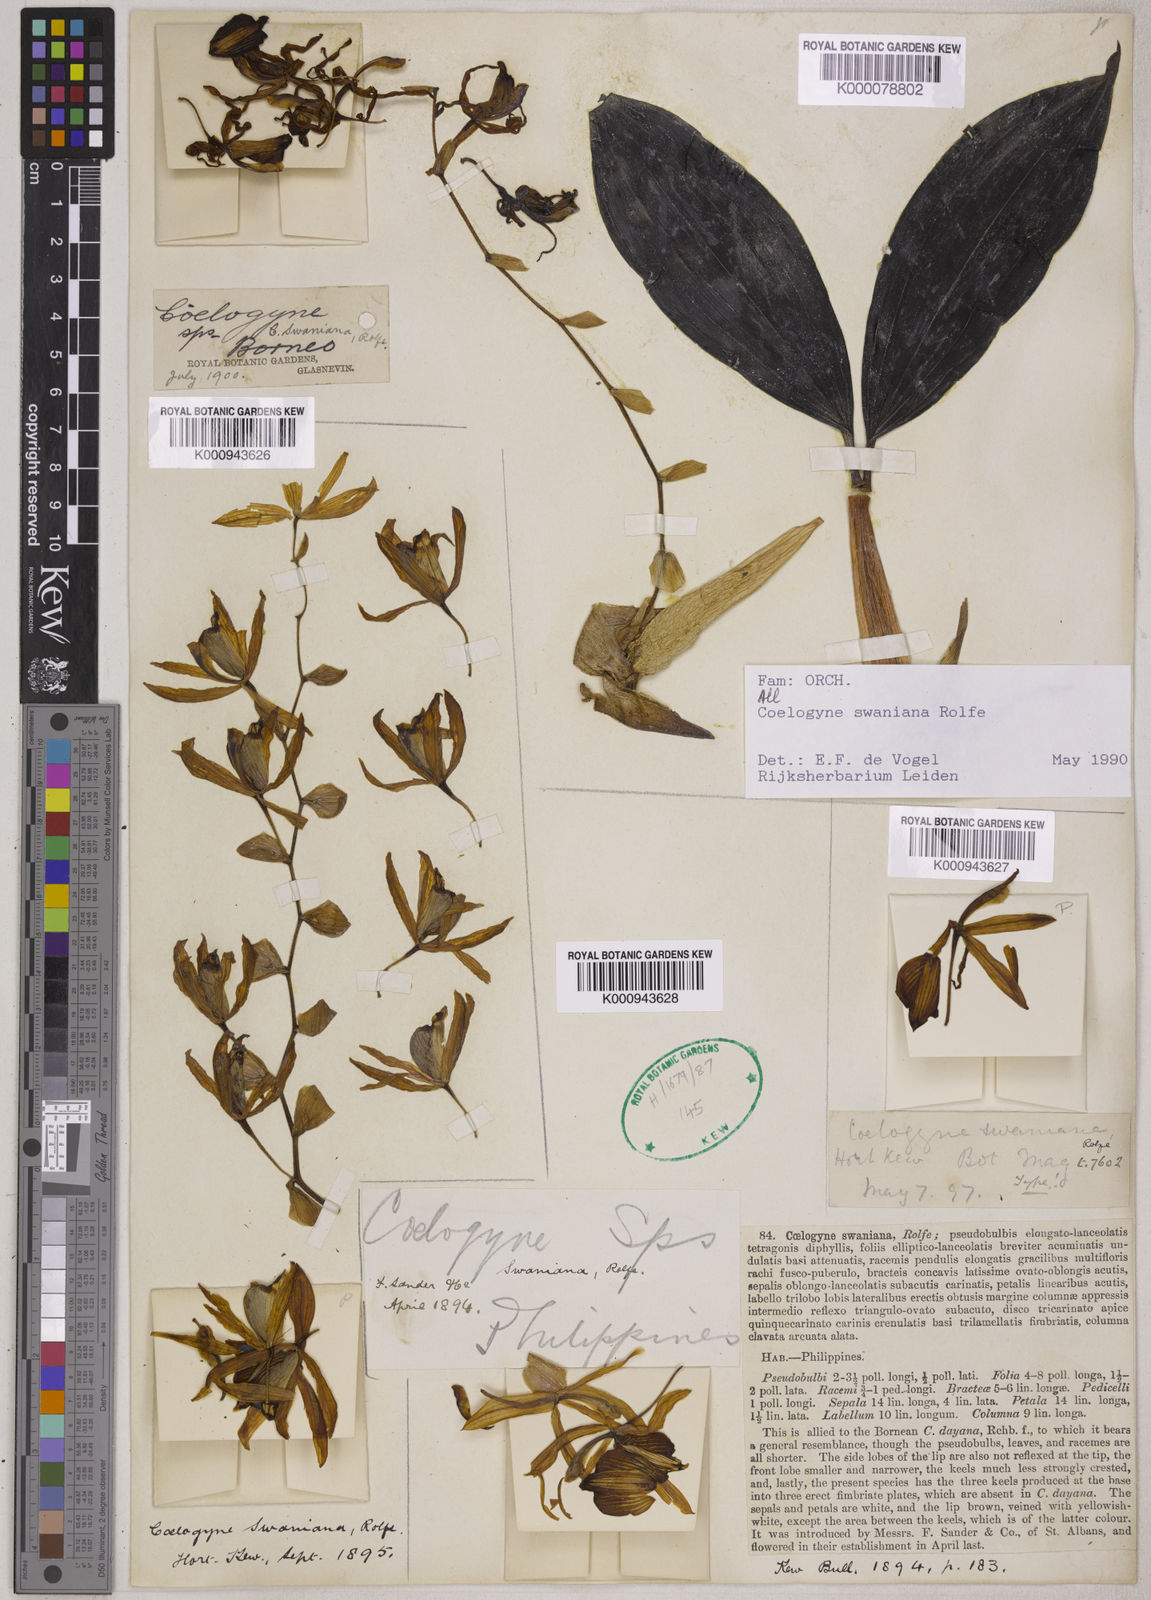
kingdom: Plantae
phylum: Tracheophyta
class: Liliopsida
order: Asparagales
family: Orchidaceae
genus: Coelogyne
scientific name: Coelogyne swaniana
